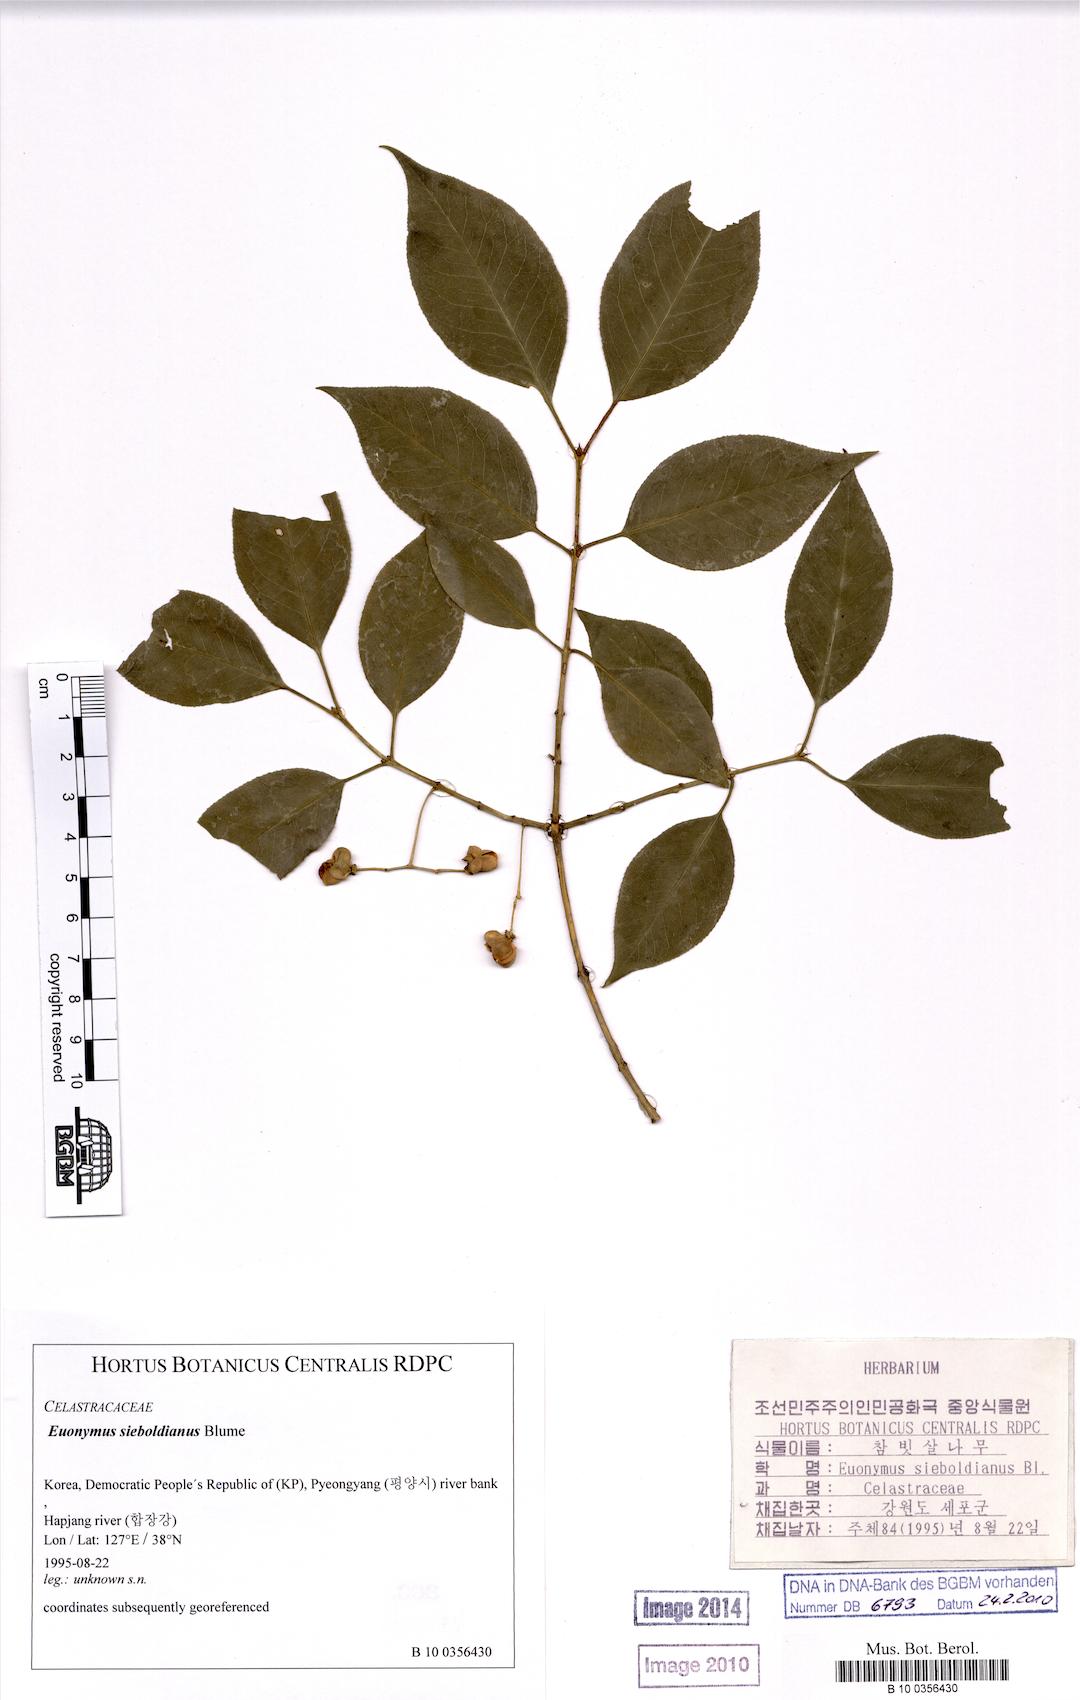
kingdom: Plantae
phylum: Tracheophyta
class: Magnoliopsida
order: Celastrales
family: Celastraceae
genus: Euonymus
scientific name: Euonymus hamiltonianus
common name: Hamilton's spindletree
